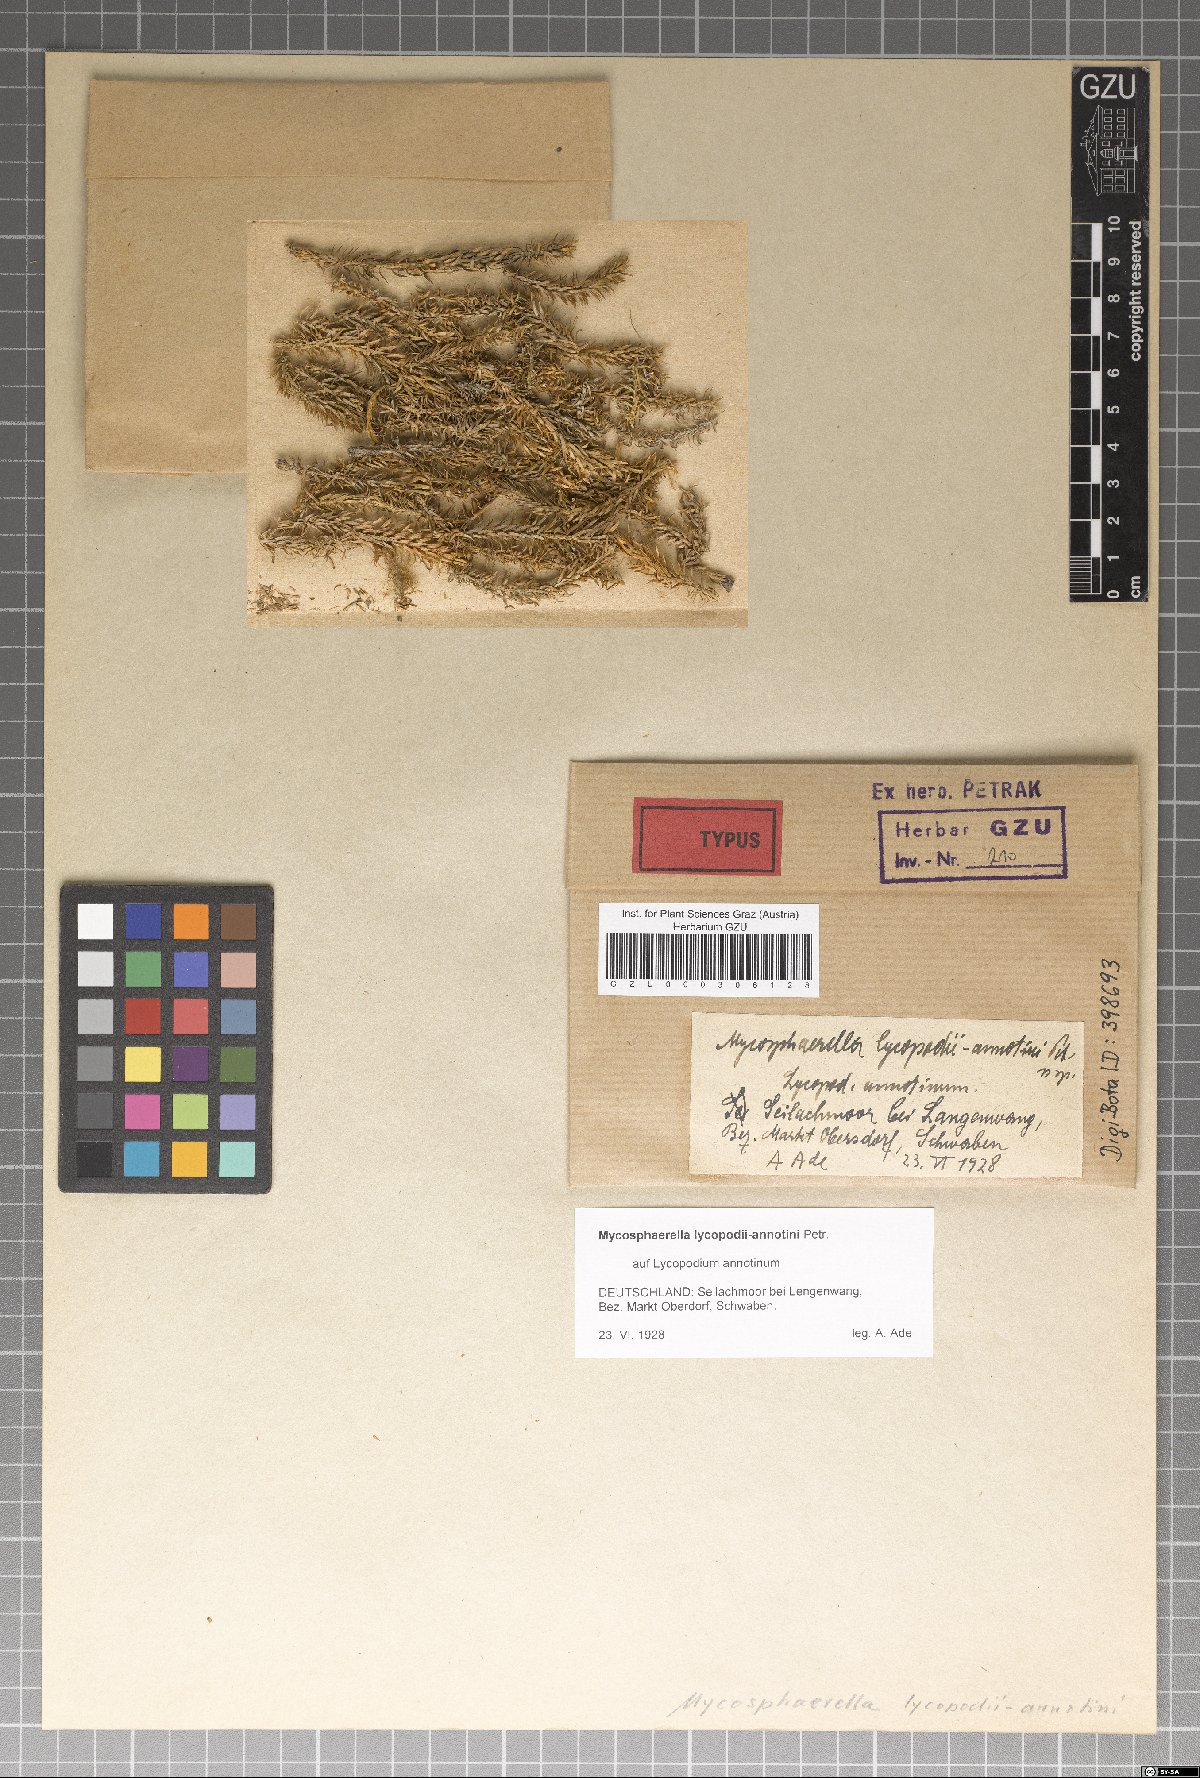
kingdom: Fungi
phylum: Ascomycota
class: Dothideomycetes
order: Mycosphaerellales
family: Mycosphaerellaceae
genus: Mycosphaerella
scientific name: Mycosphaerella lycopodii-annotini
